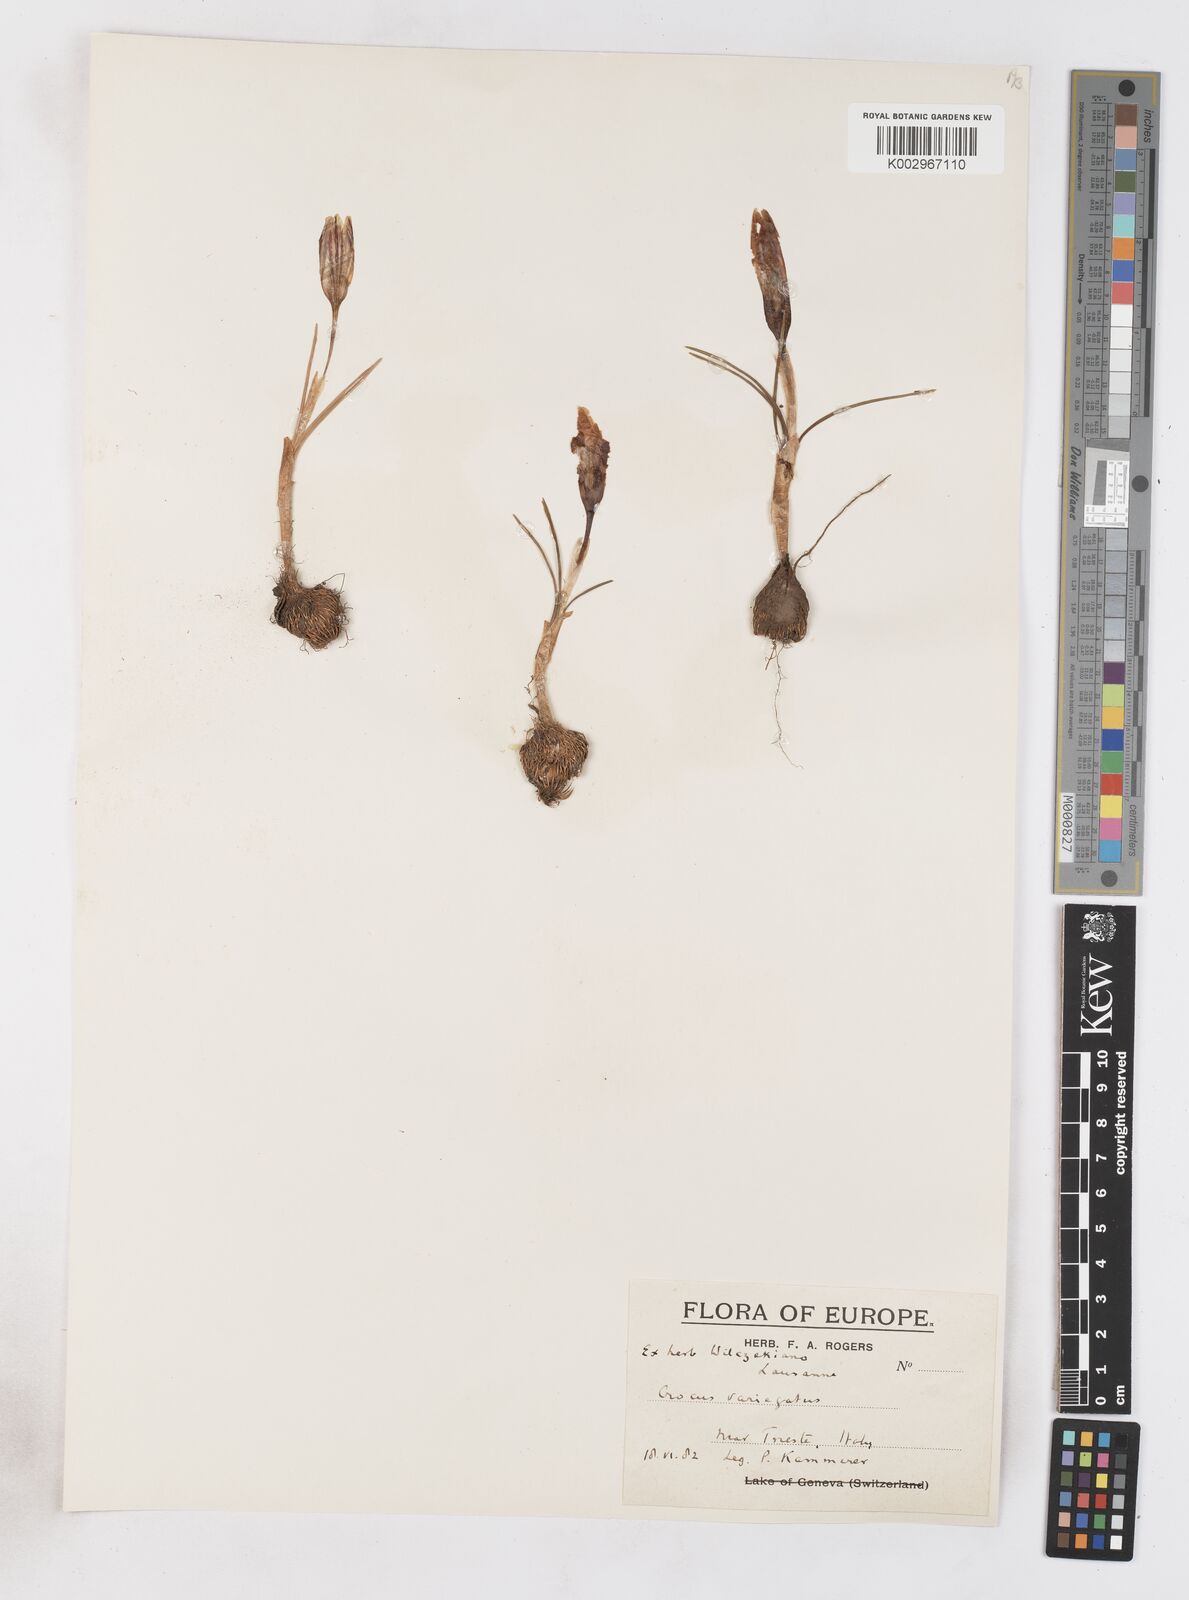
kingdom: Plantae
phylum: Tracheophyta
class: Liliopsida
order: Asparagales
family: Iridaceae
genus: Crocus
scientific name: Crocus reticulatus
